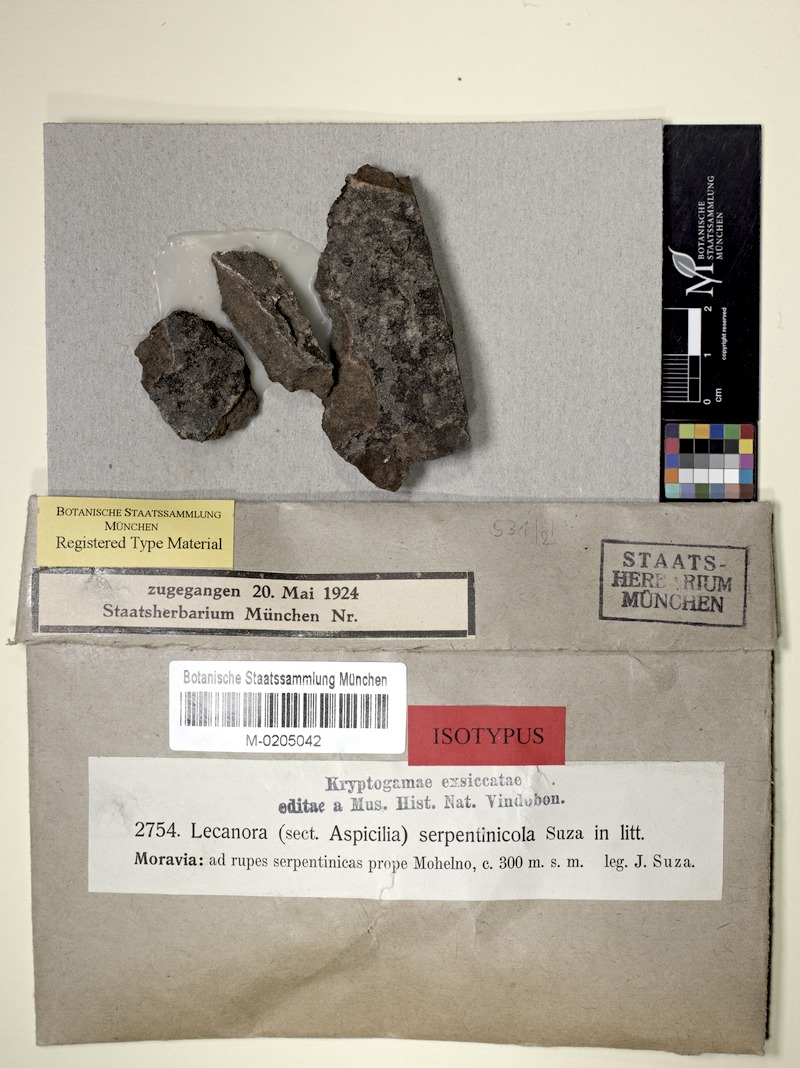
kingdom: Fungi
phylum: Ascomycota
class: Lecanoromycetes
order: Pertusariales
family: Megasporaceae
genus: Aspicilia
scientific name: Aspicilia serpentinicola
